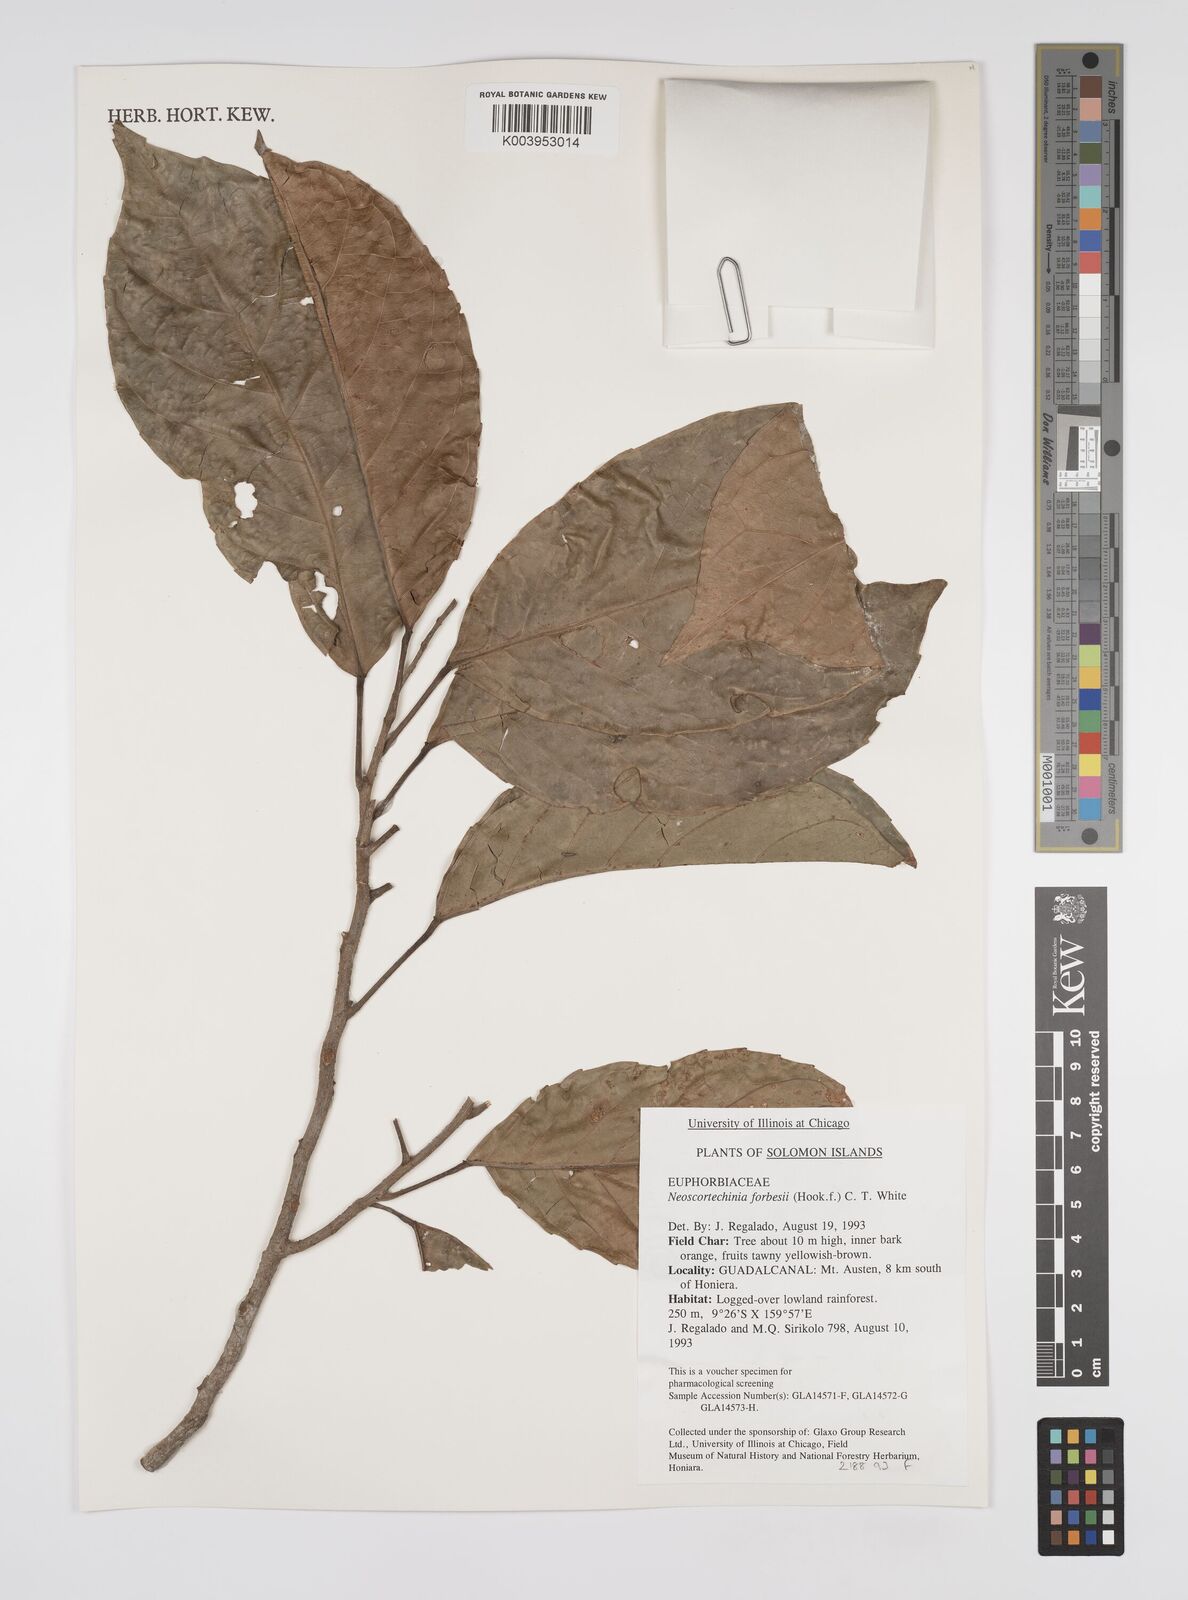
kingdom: Plantae
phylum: Tracheophyta
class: Magnoliopsida
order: Malpighiales
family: Euphorbiaceae
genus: Neoscortechinia
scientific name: Neoscortechinia forbesii
